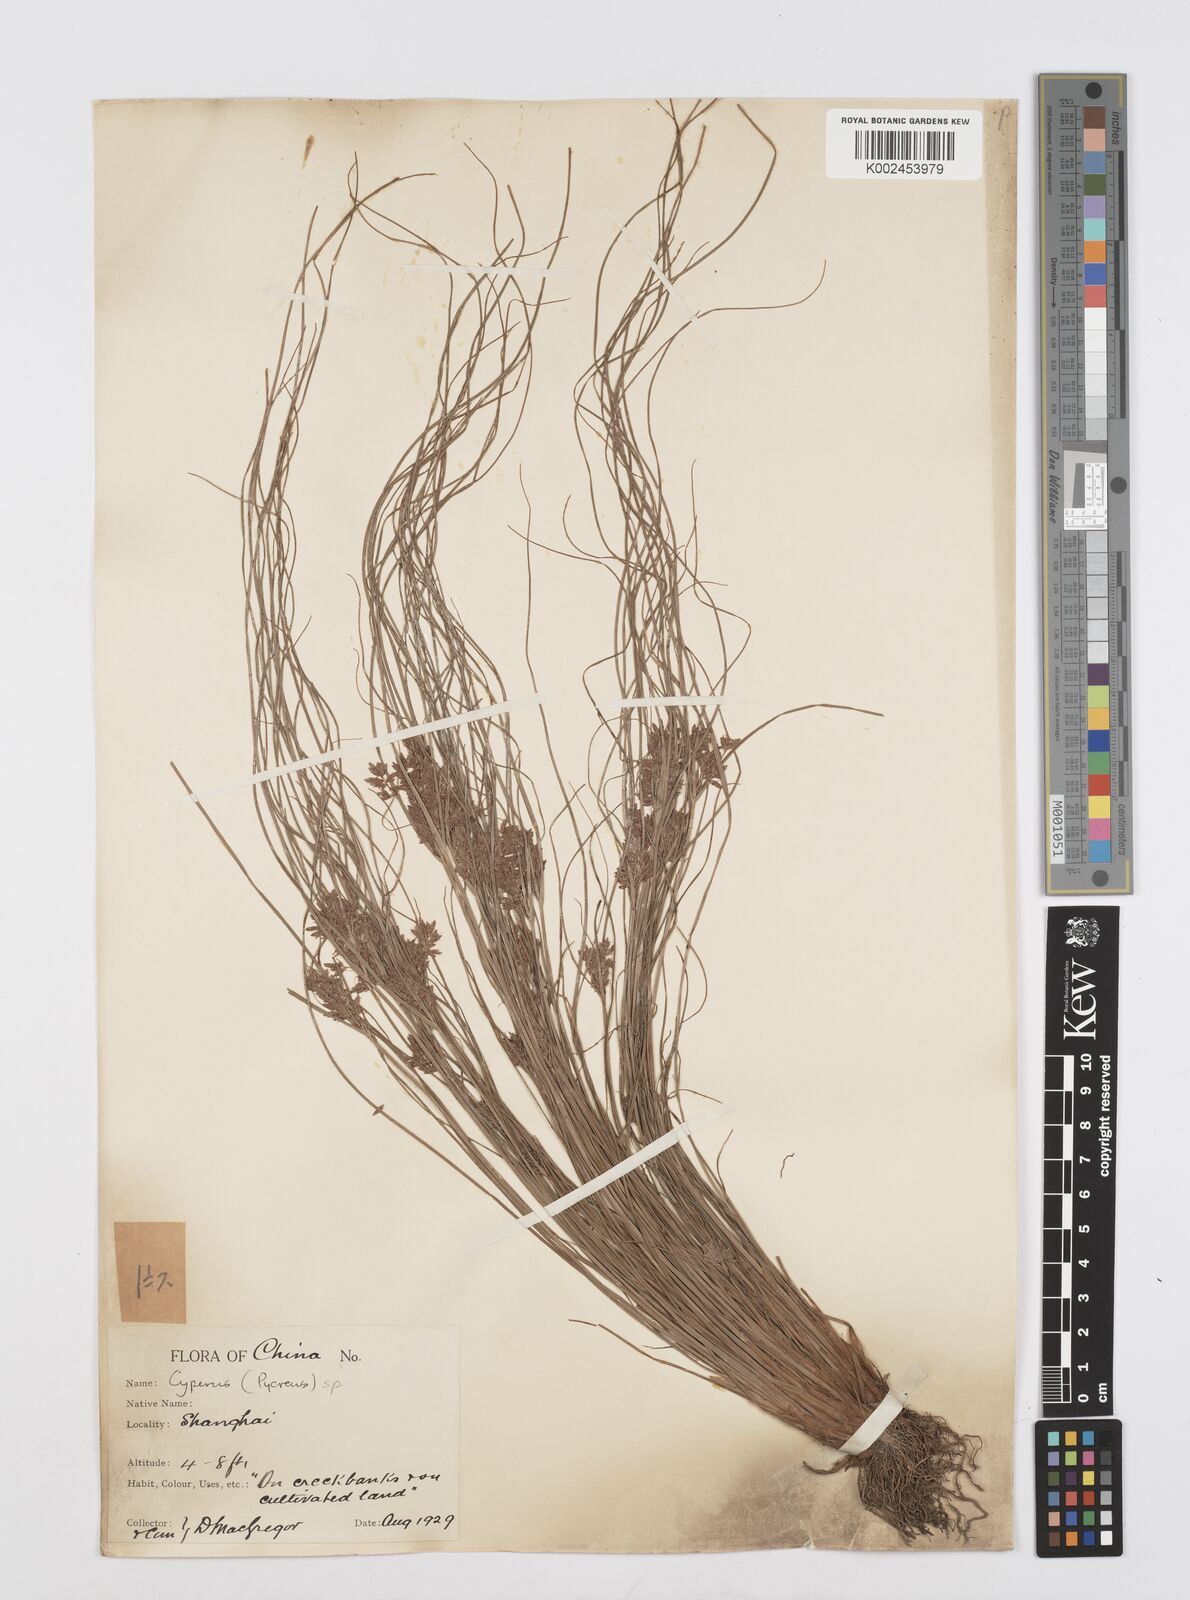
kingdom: Plantae
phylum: Tracheophyta
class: Liliopsida
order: Poales
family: Cyperaceae
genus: Cyperus
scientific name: Cyperus
